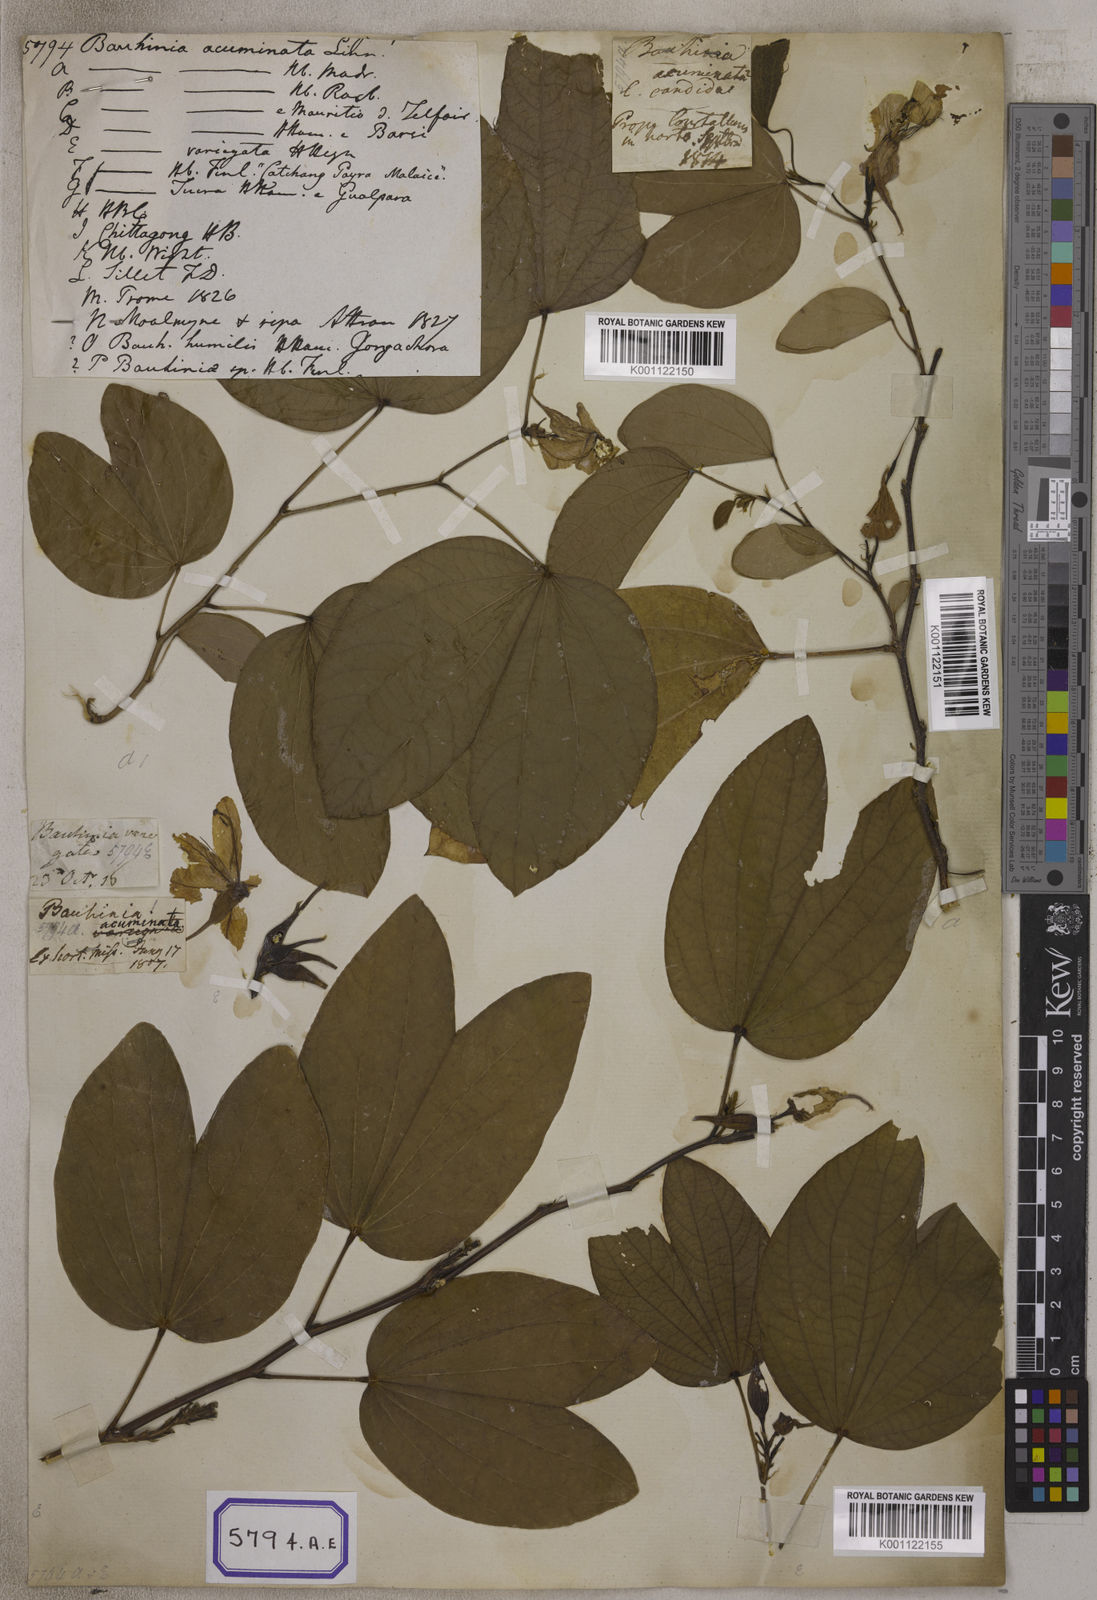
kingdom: Plantae
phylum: Tracheophyta
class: Magnoliopsida
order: Fabales
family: Fabaceae
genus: Bauhinia
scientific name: Bauhinia acuminata
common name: Dwarf white bauhinia
